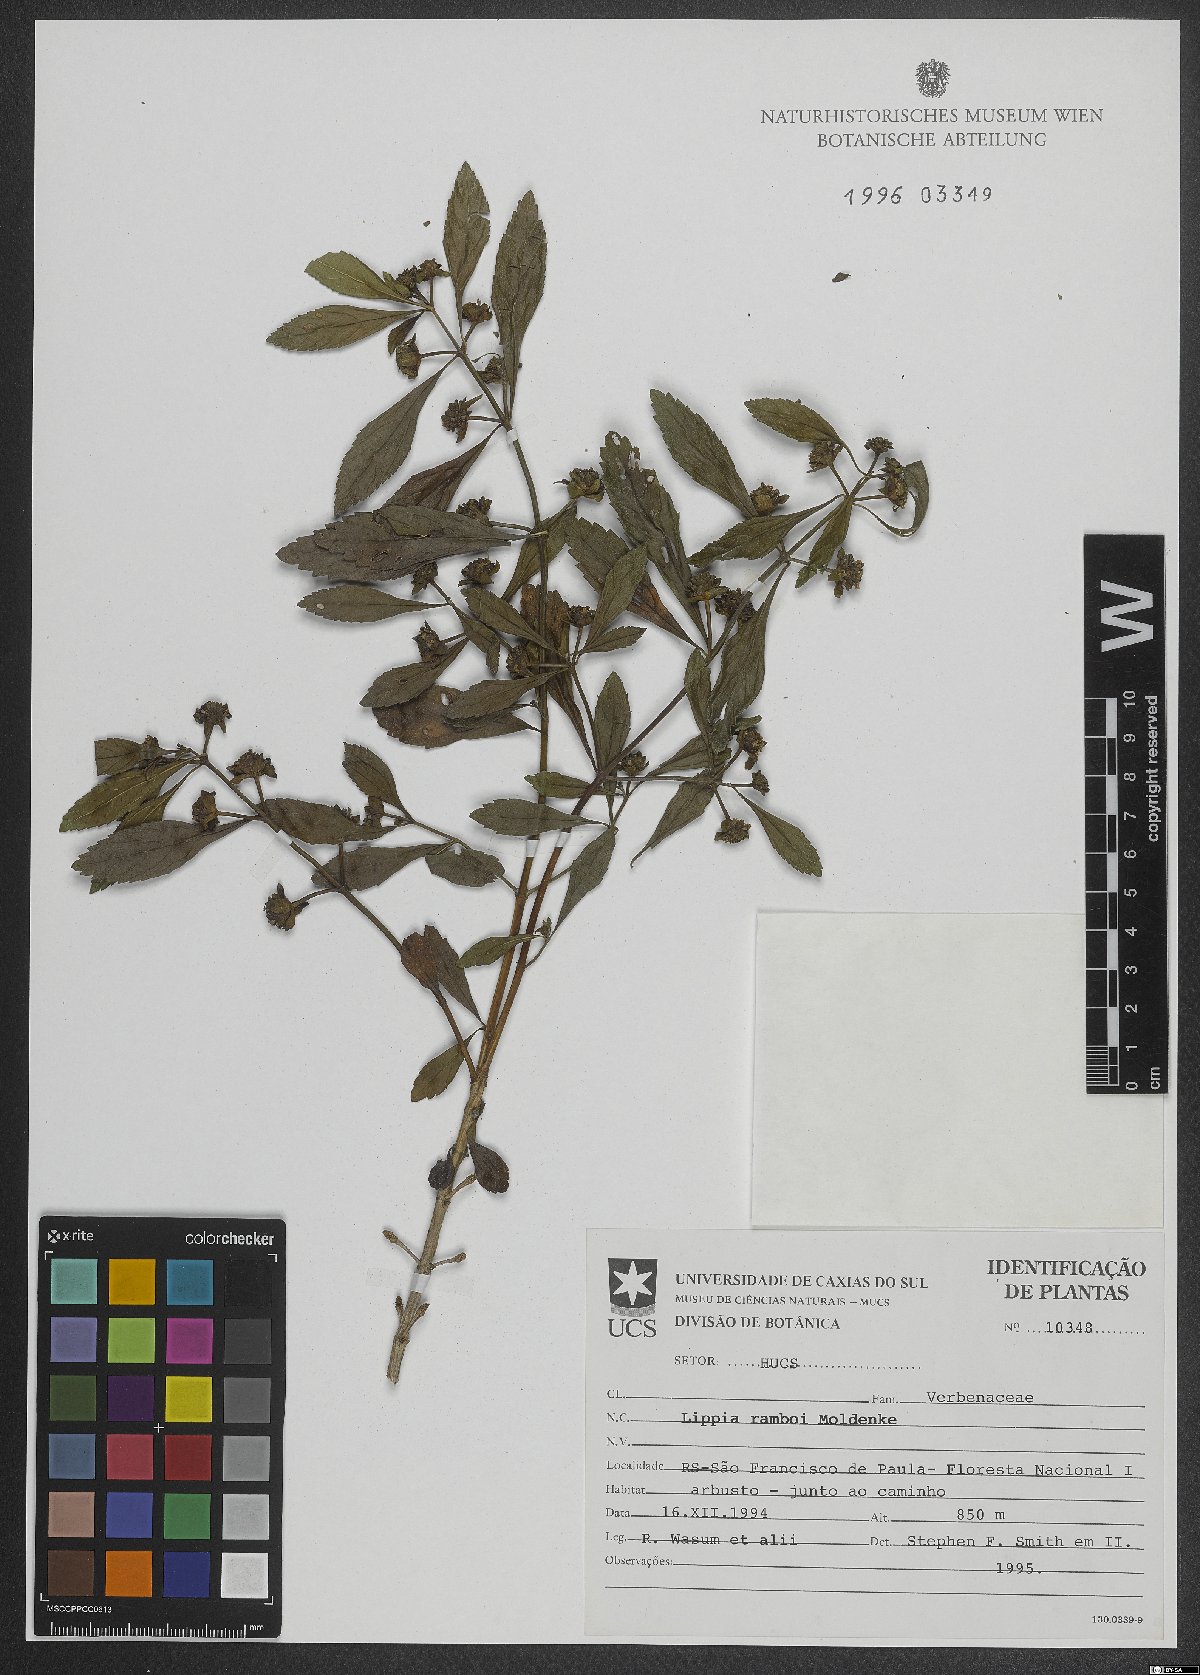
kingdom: Plantae
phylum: Tracheophyta
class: Magnoliopsida
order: Lamiales
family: Verbenaceae
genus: Lantana
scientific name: Lantana ramboi
